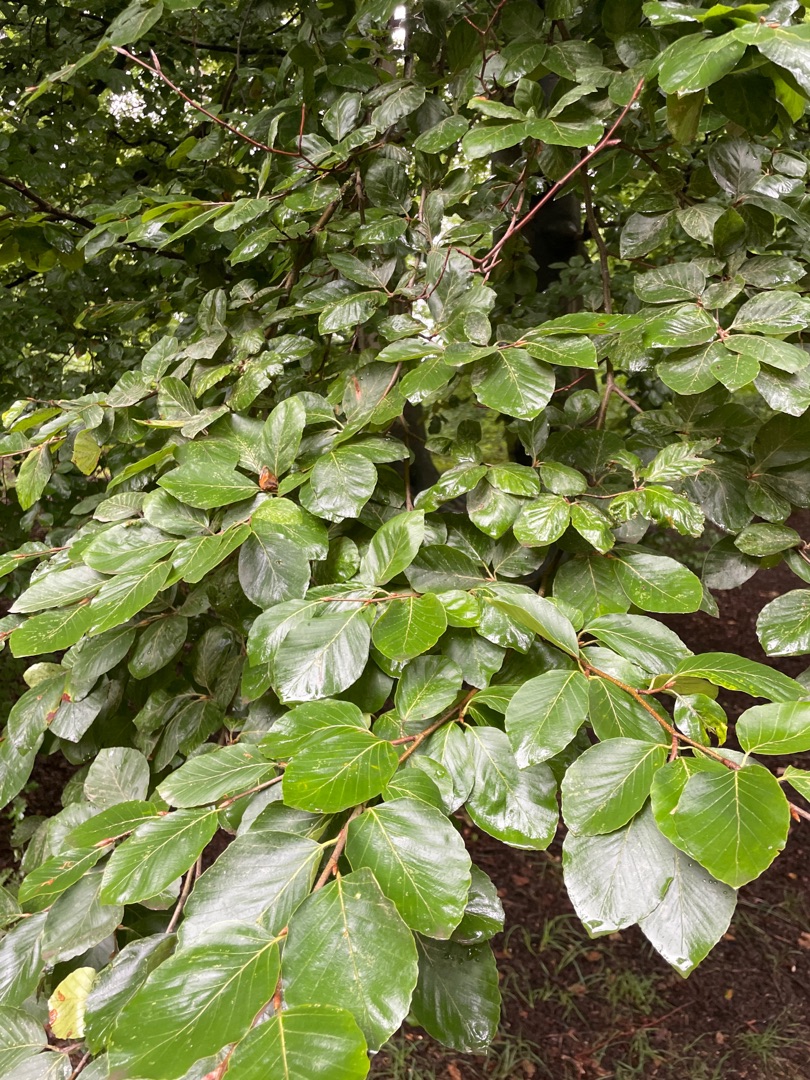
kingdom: Plantae
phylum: Tracheophyta
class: Magnoliopsida
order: Fagales
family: Fagaceae
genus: Fagus
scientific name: Fagus sylvatica
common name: Bøg
